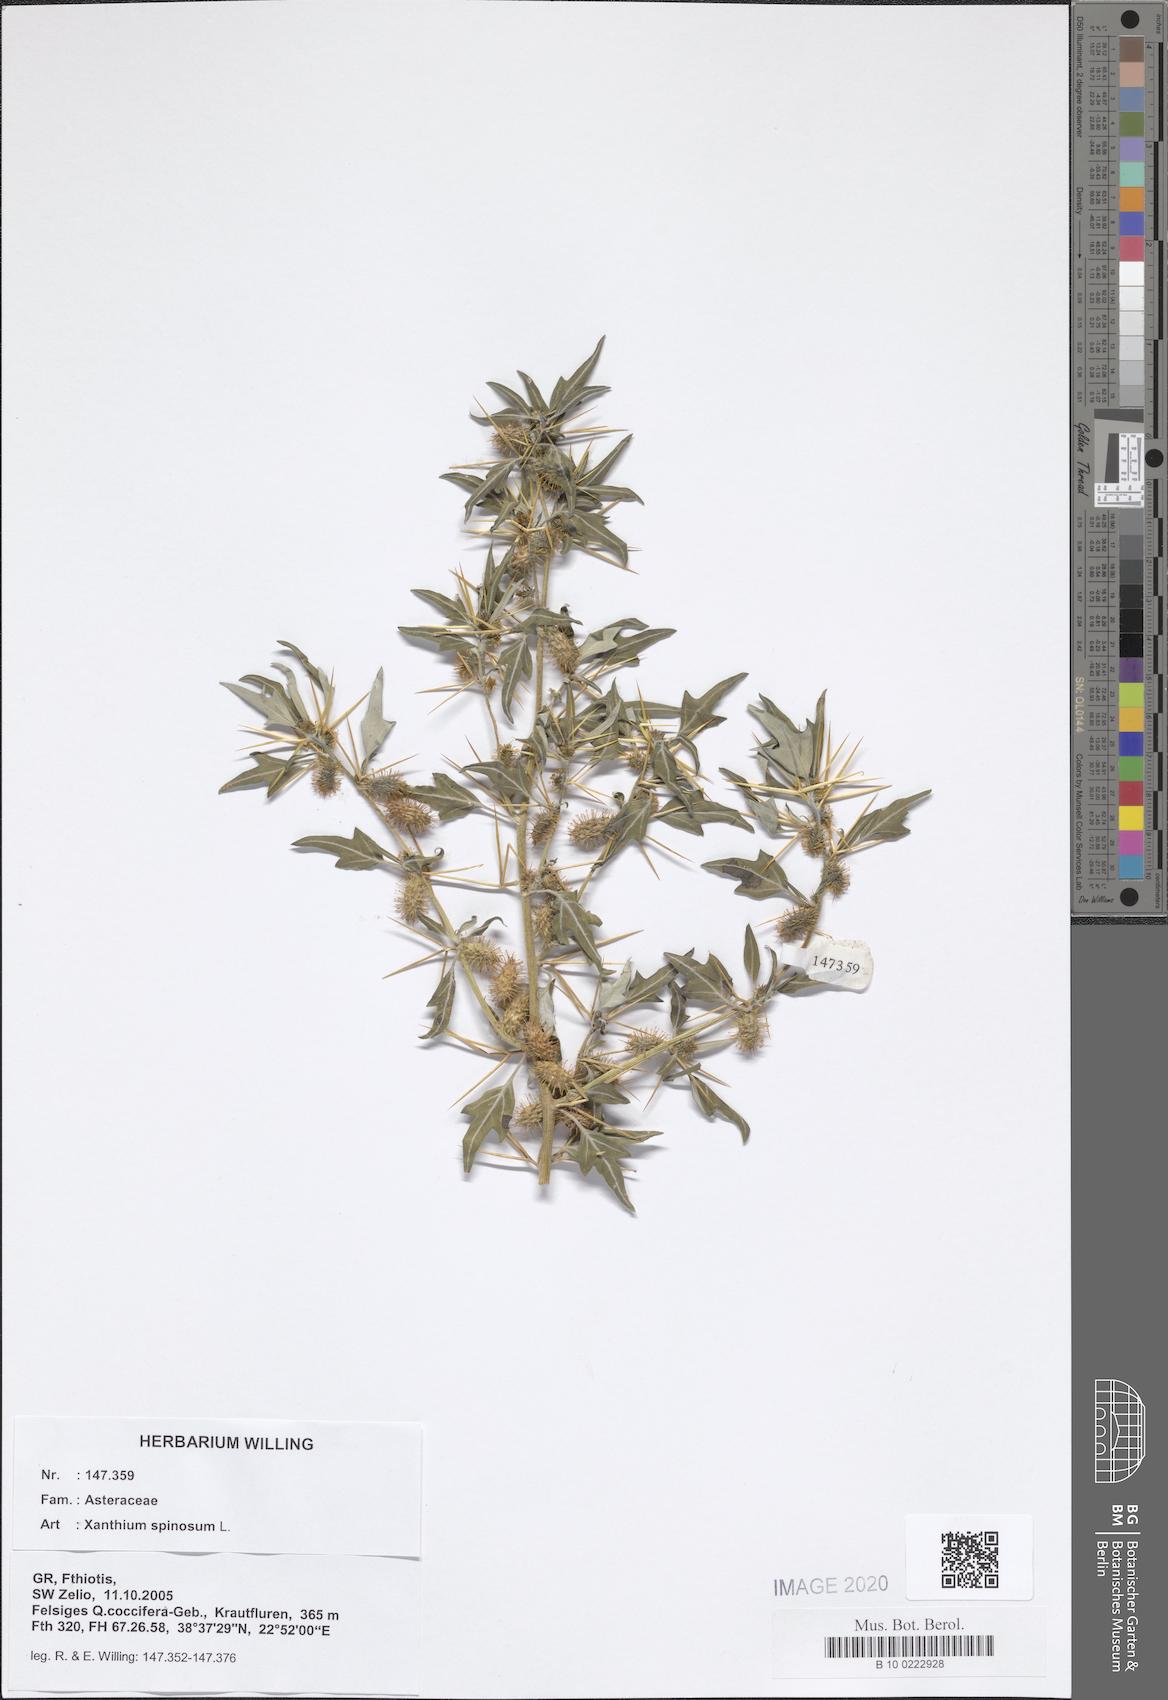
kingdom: Plantae
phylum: Tracheophyta
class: Magnoliopsida
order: Asterales
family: Asteraceae
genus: Xanthium
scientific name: Xanthium spinosum
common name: Spiny cocklebur
